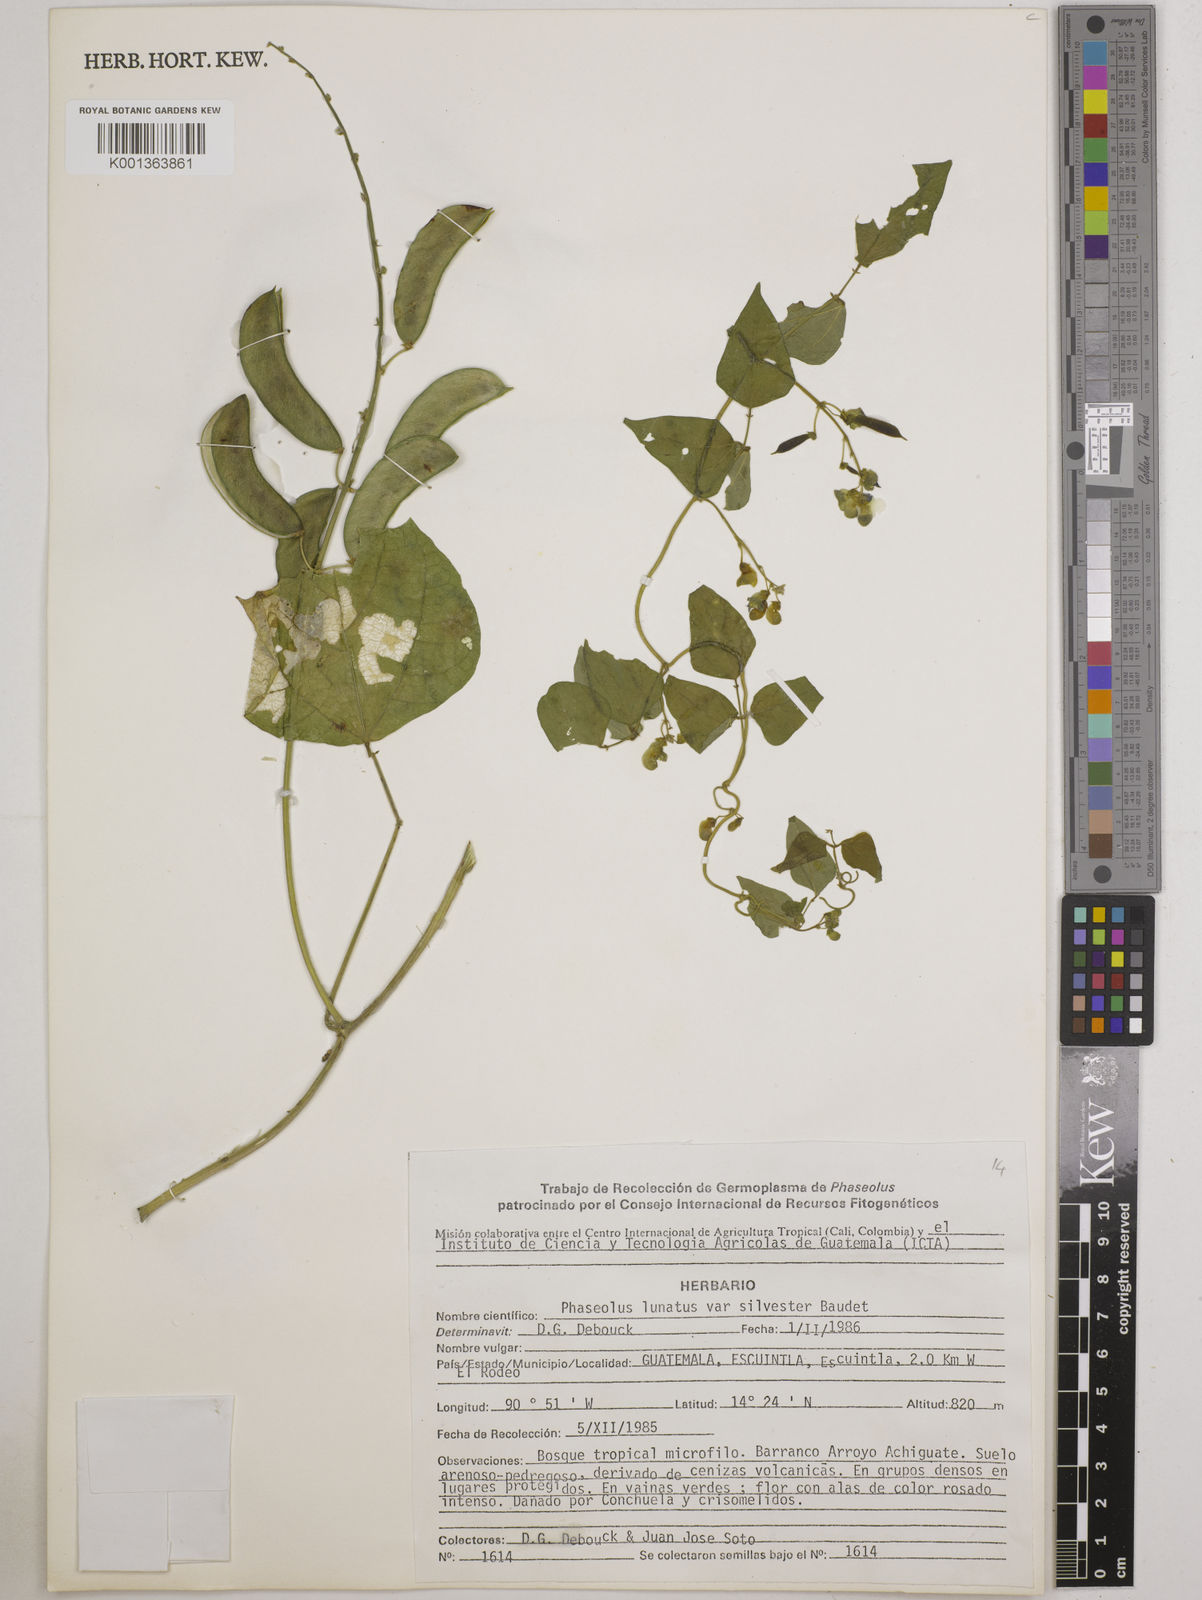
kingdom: Plantae
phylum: Tracheophyta
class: Magnoliopsida
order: Fabales
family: Fabaceae
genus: Phaseolus
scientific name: Phaseolus lunatus
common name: Sieva bean
